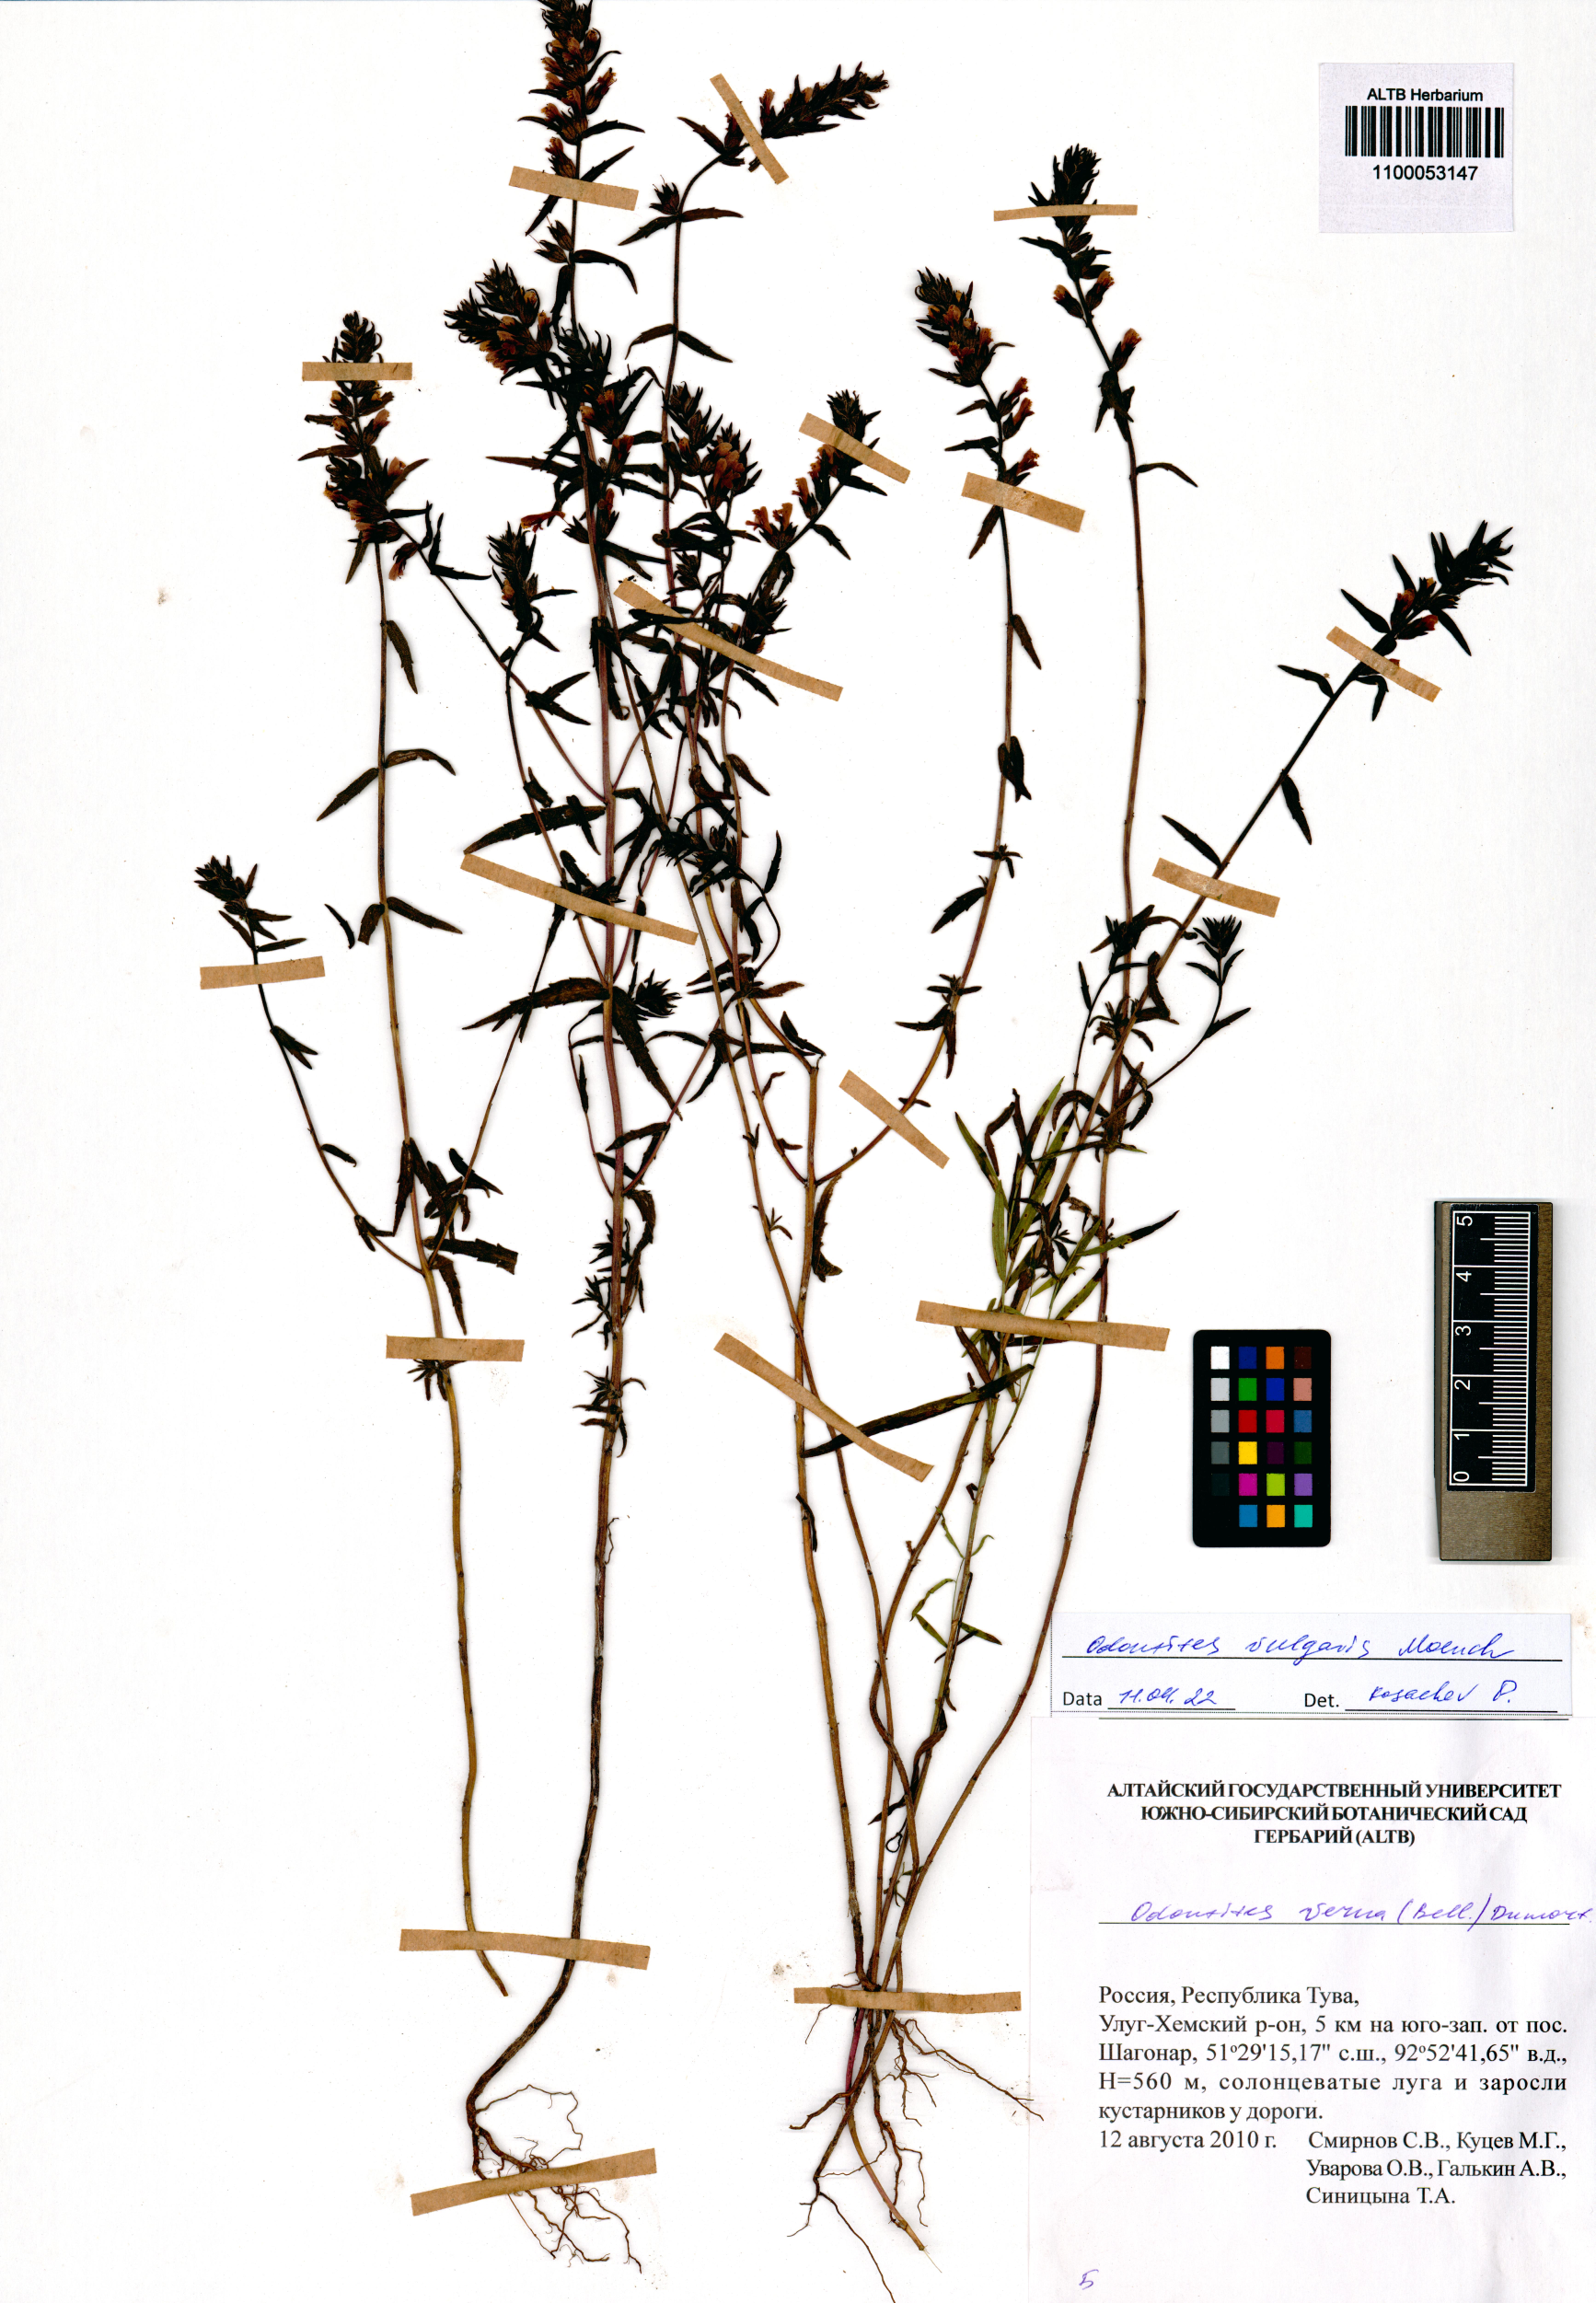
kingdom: Plantae
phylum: Tracheophyta
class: Magnoliopsida
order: Lamiales
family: Orobanchaceae
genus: Odontites
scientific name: Odontites vulgaris
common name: Broomrape
